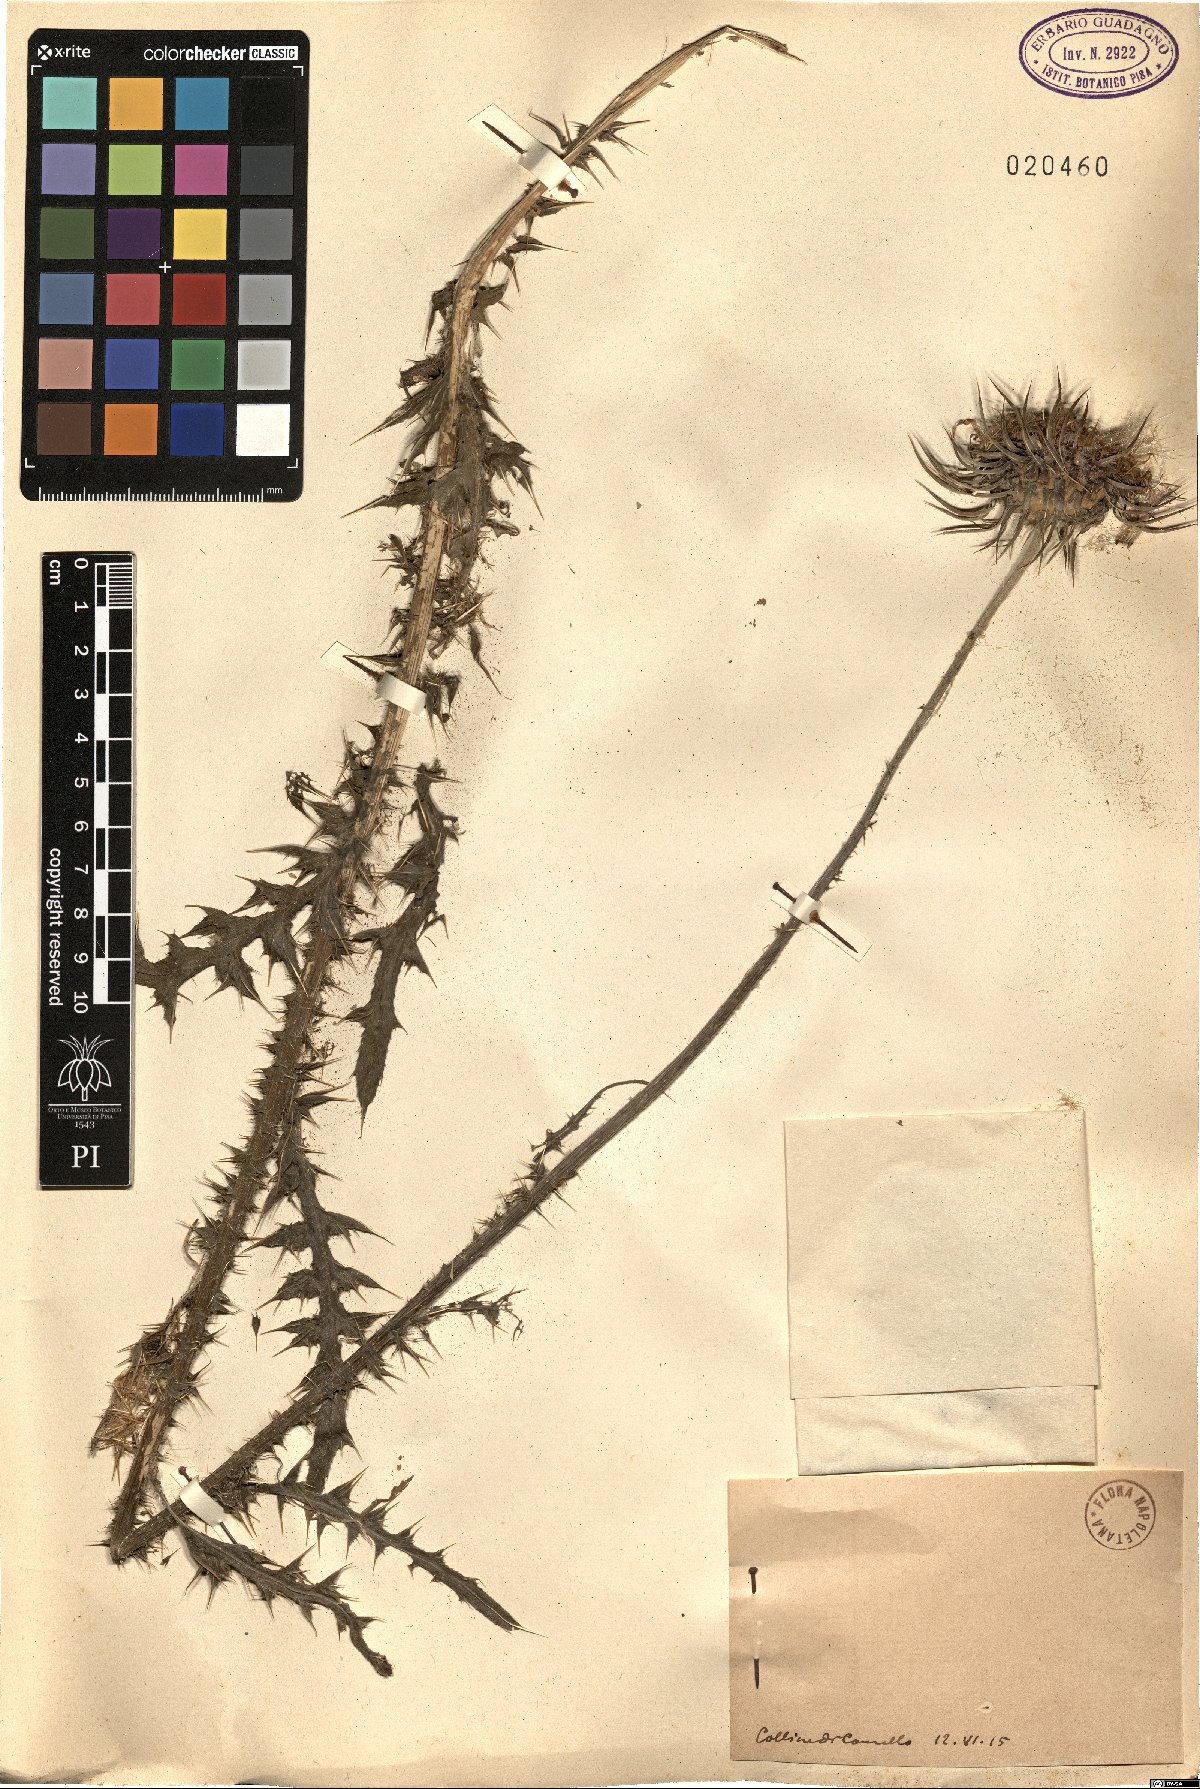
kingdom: Plantae
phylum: Tracheophyta
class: Magnoliopsida
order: Asterales
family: Asteraceae
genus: Carduus
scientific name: Carduus
